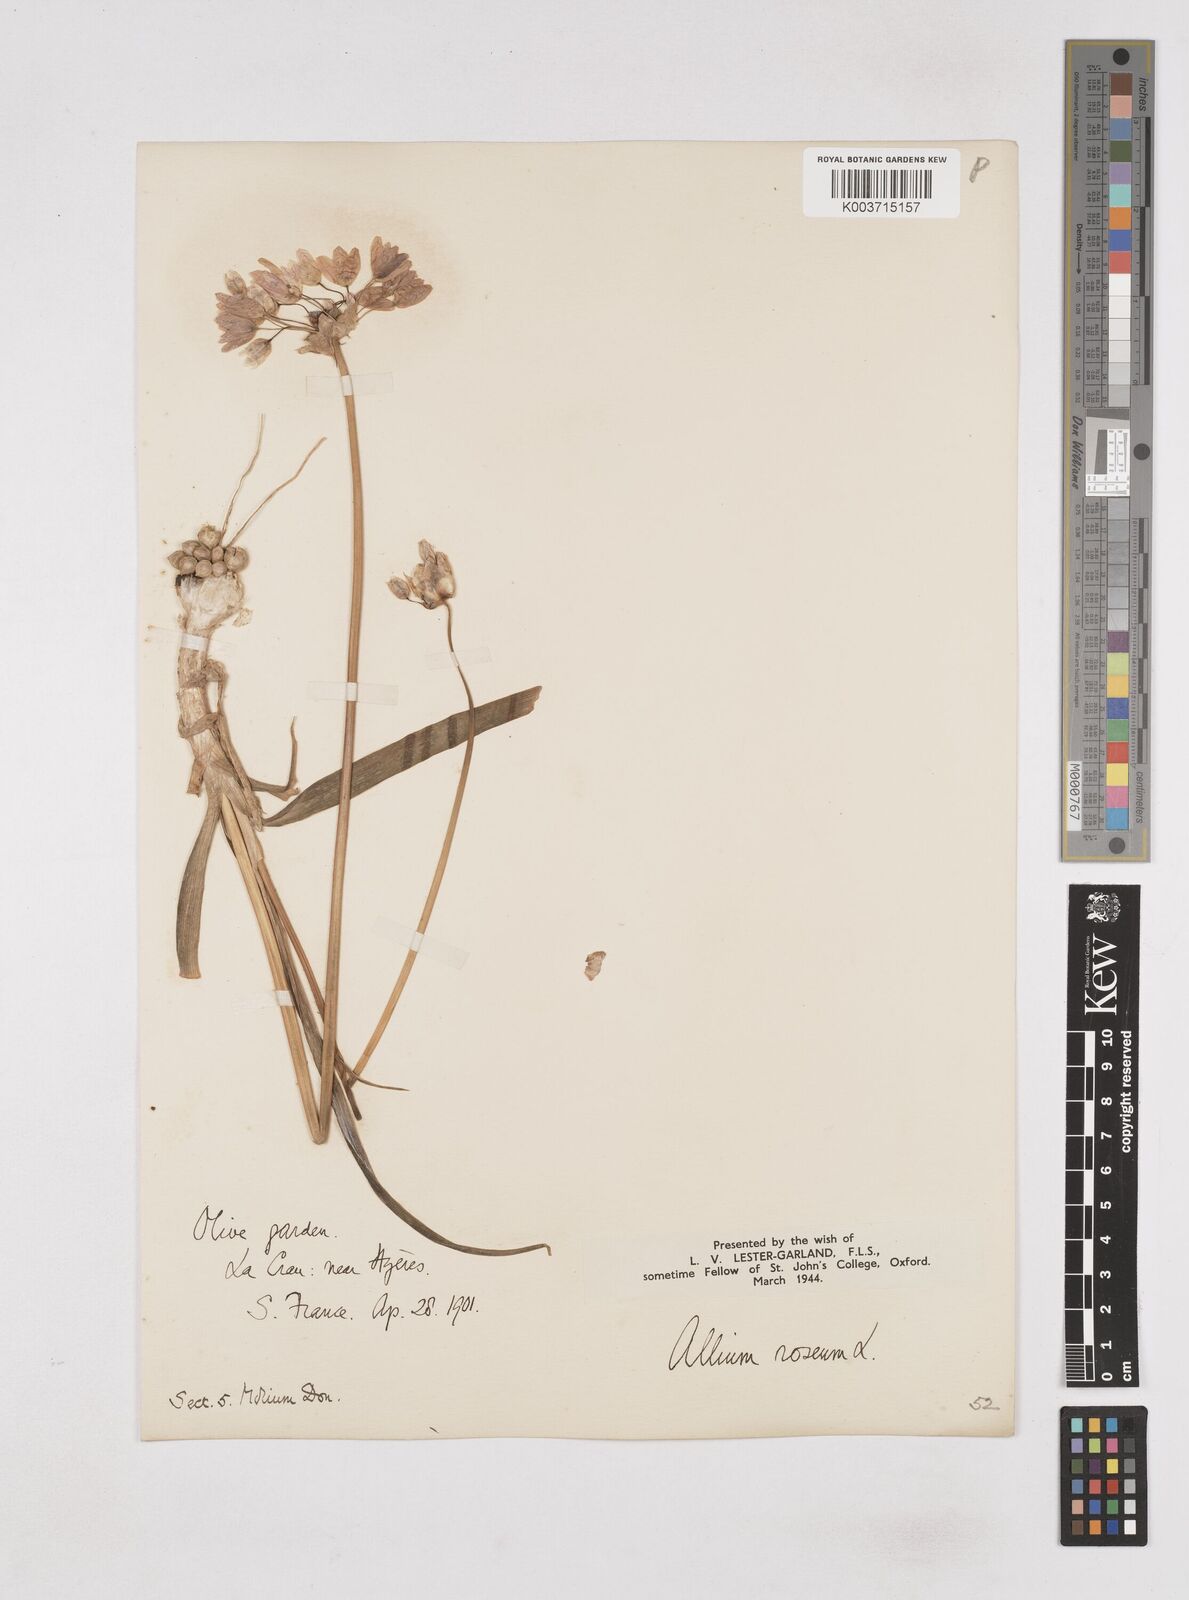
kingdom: Plantae
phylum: Tracheophyta
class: Liliopsida
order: Asparagales
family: Amaryllidaceae
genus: Allium
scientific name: Allium roseum
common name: Rosy garlic
